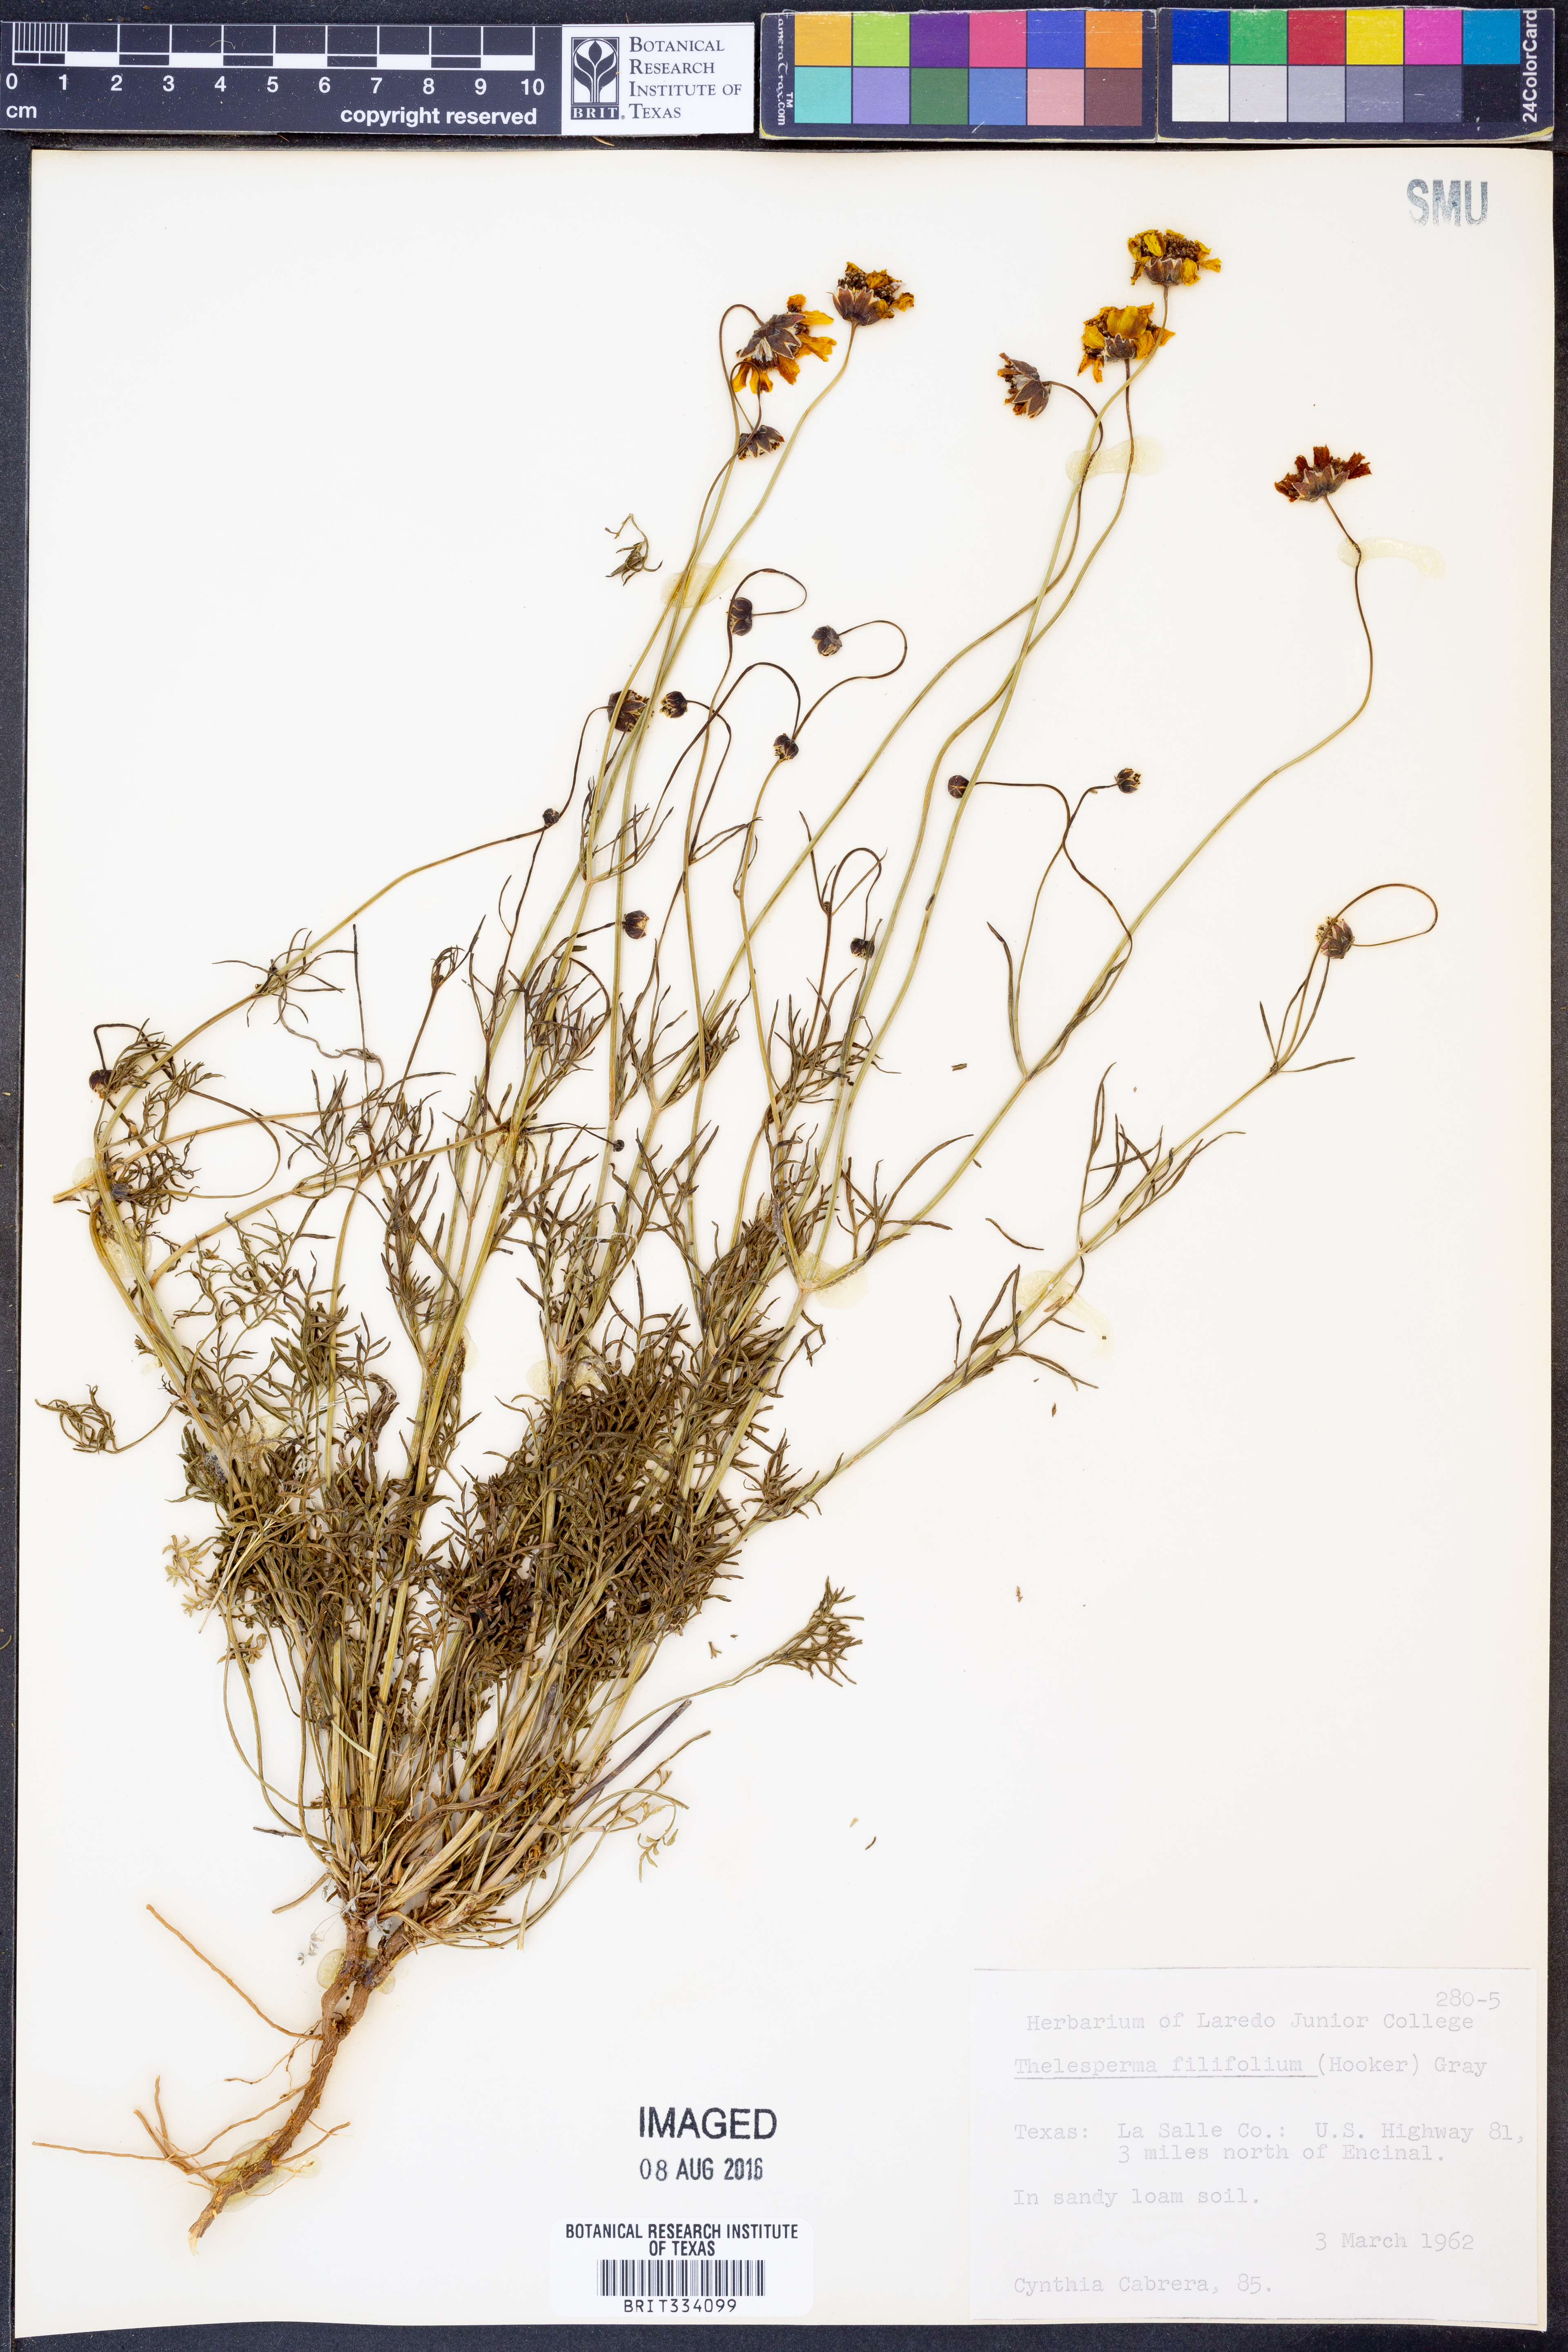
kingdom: Plantae
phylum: Tracheophyta
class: Magnoliopsida
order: Asterales
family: Asteraceae
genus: Thelesperma
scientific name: Thelesperma filifolium
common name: Stiff greenthread
